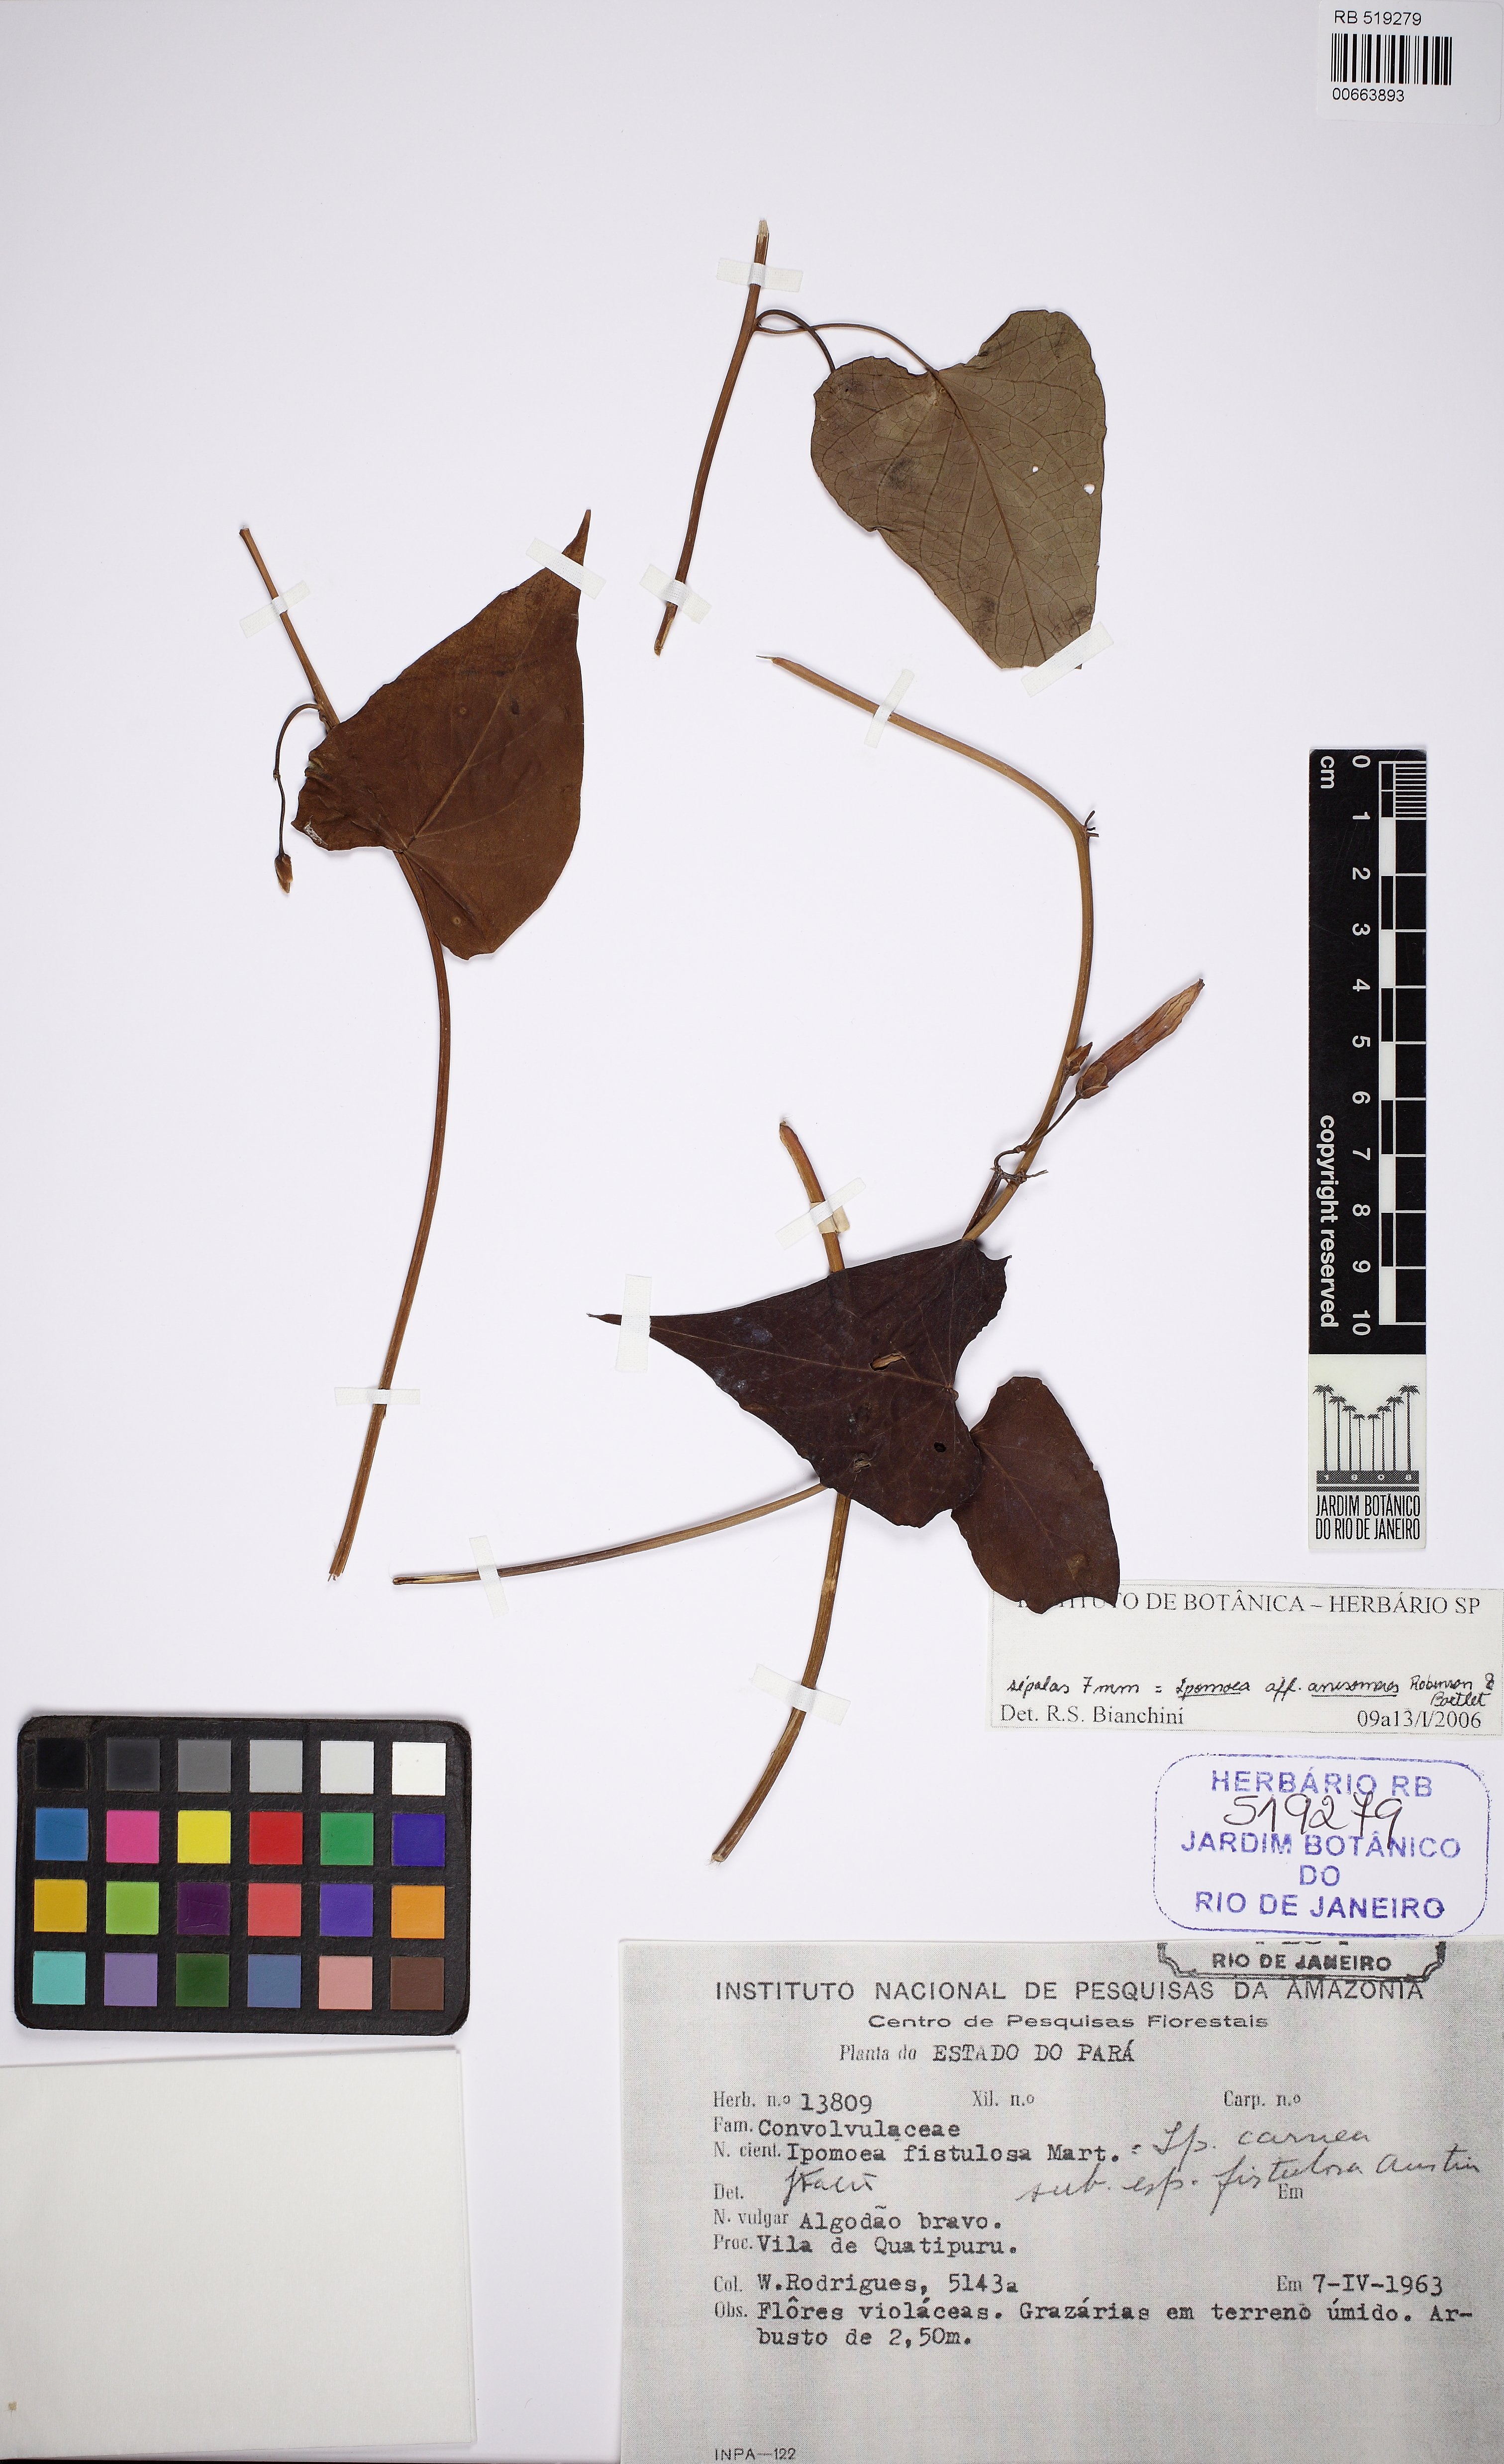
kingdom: Plantae
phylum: Tracheophyta
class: Magnoliopsida
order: Solanales
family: Convolvulaceae
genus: Ipomoea
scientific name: Ipomoea squamosa
